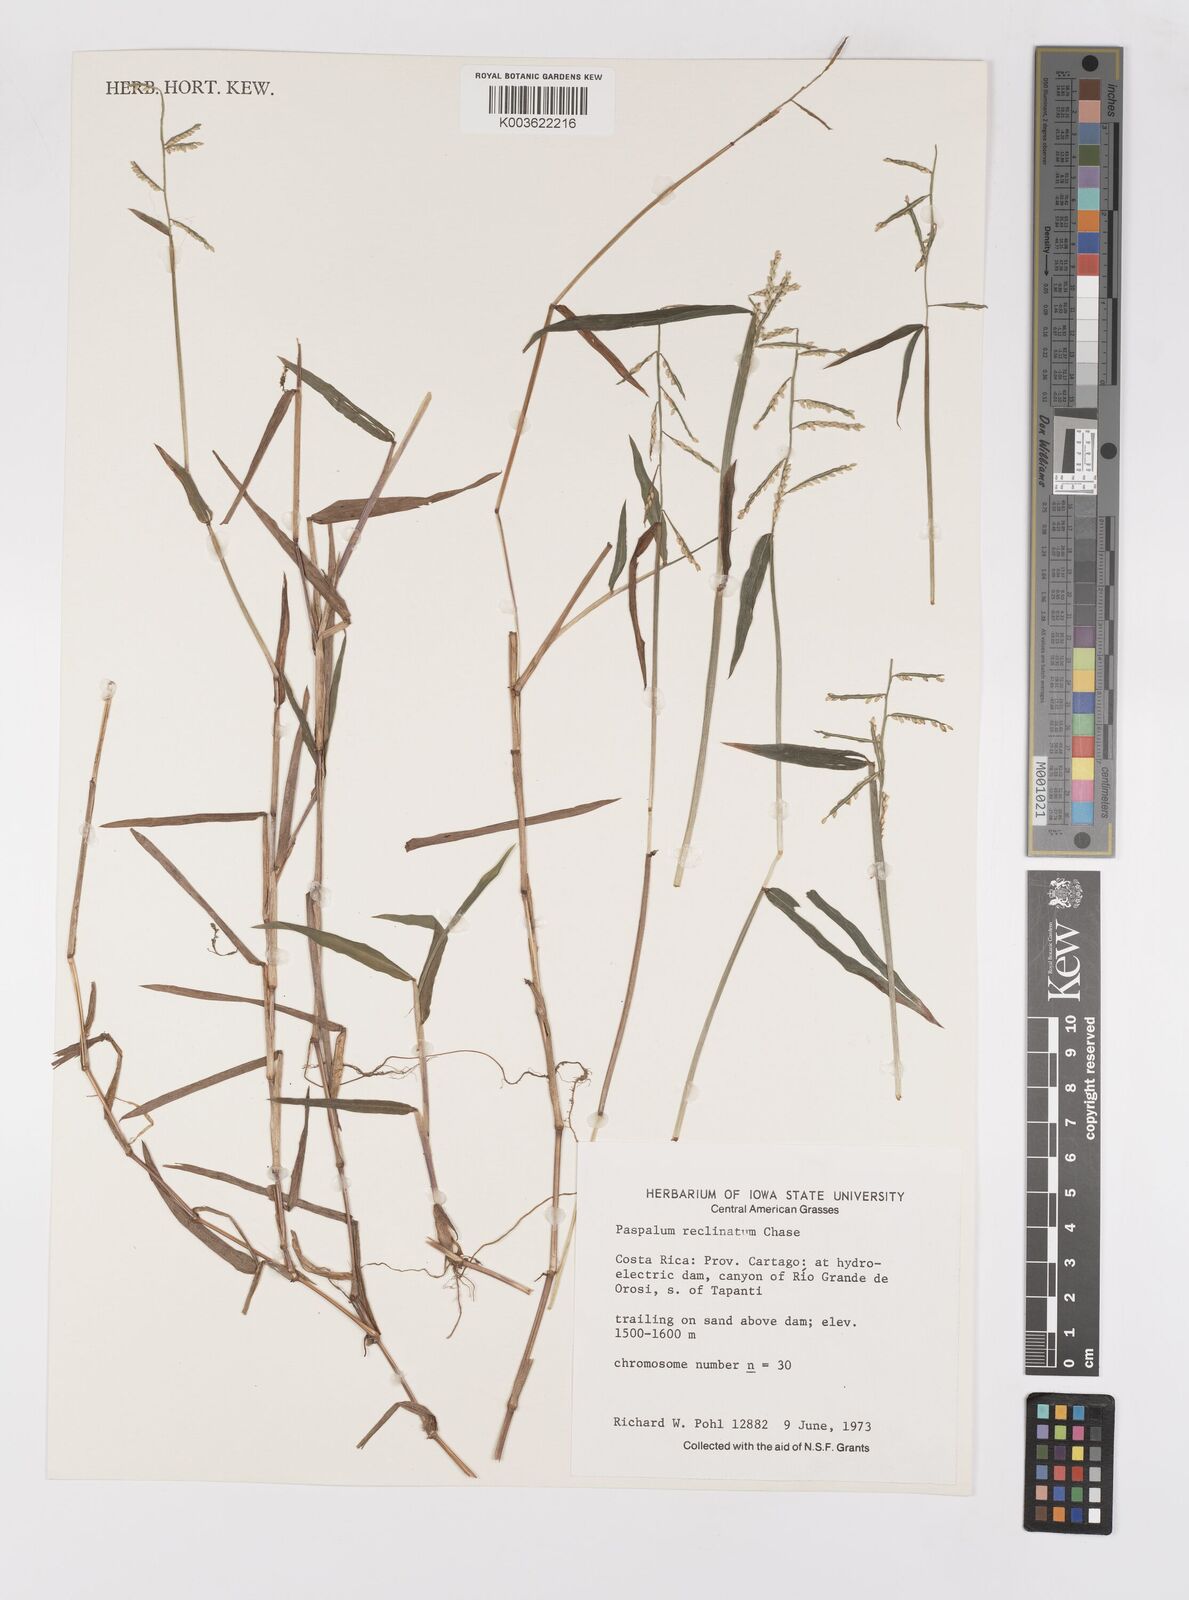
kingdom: Plantae
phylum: Tracheophyta
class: Liliopsida
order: Poales
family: Poaceae
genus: Paspalum
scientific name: Paspalum reclinatum
